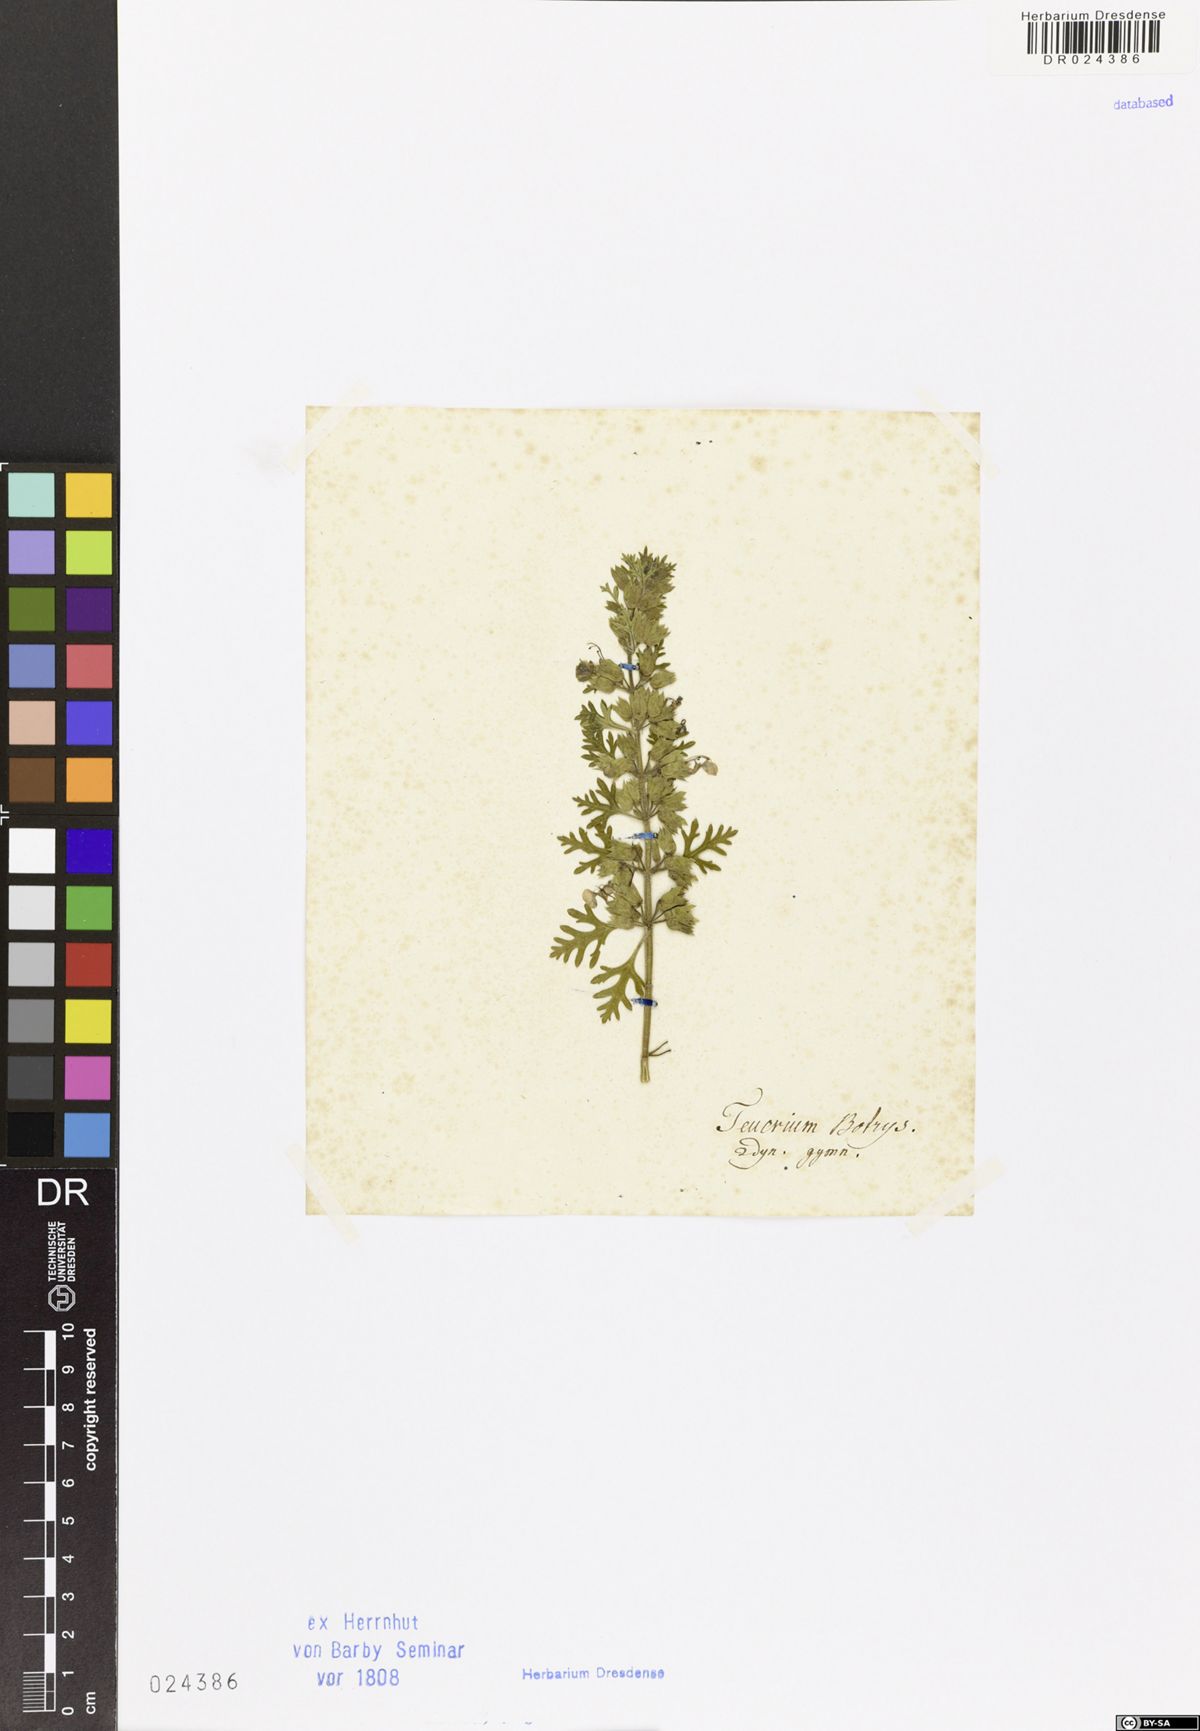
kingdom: Plantae
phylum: Tracheophyta
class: Magnoliopsida
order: Lamiales
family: Lamiaceae
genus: Teucrium
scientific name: Teucrium botrys
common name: Cut-leaved germander
